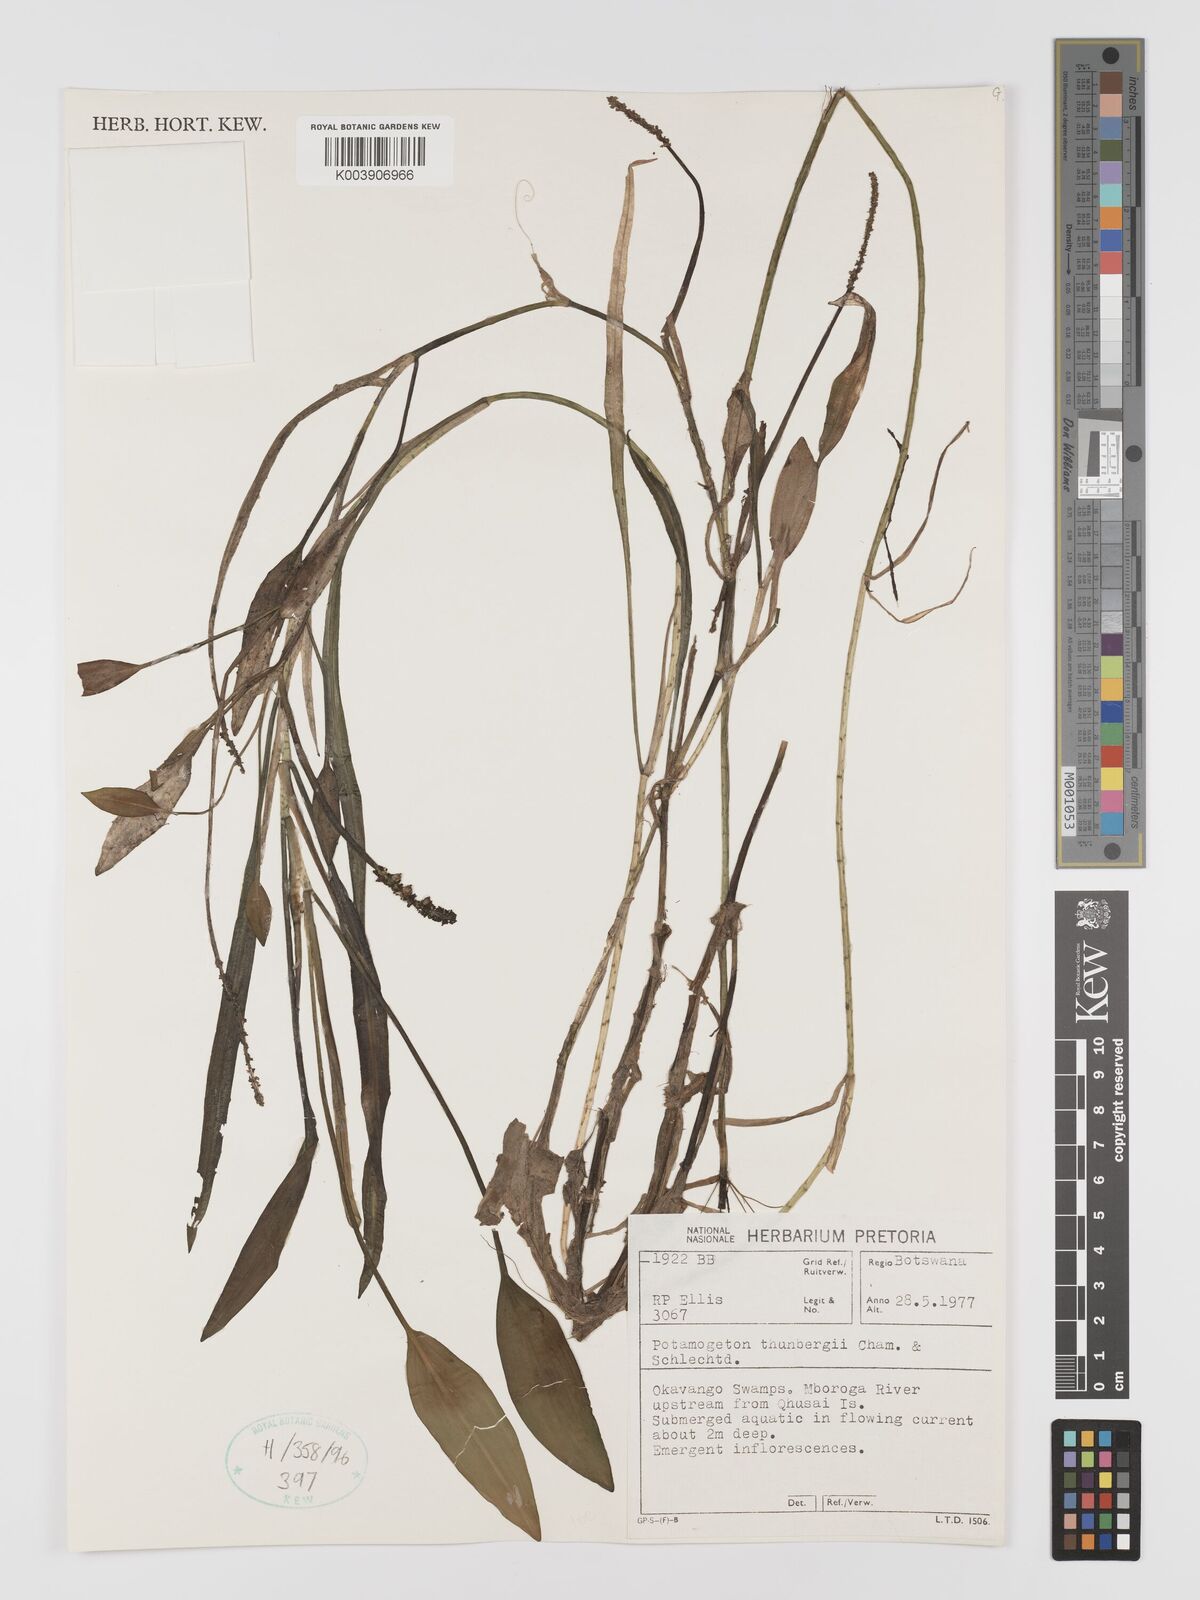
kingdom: Plantae
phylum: Tracheophyta
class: Liliopsida
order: Alismatales
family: Potamogetonaceae
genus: Potamogeton
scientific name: Potamogeton nodosus
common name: Loddon pondweed
